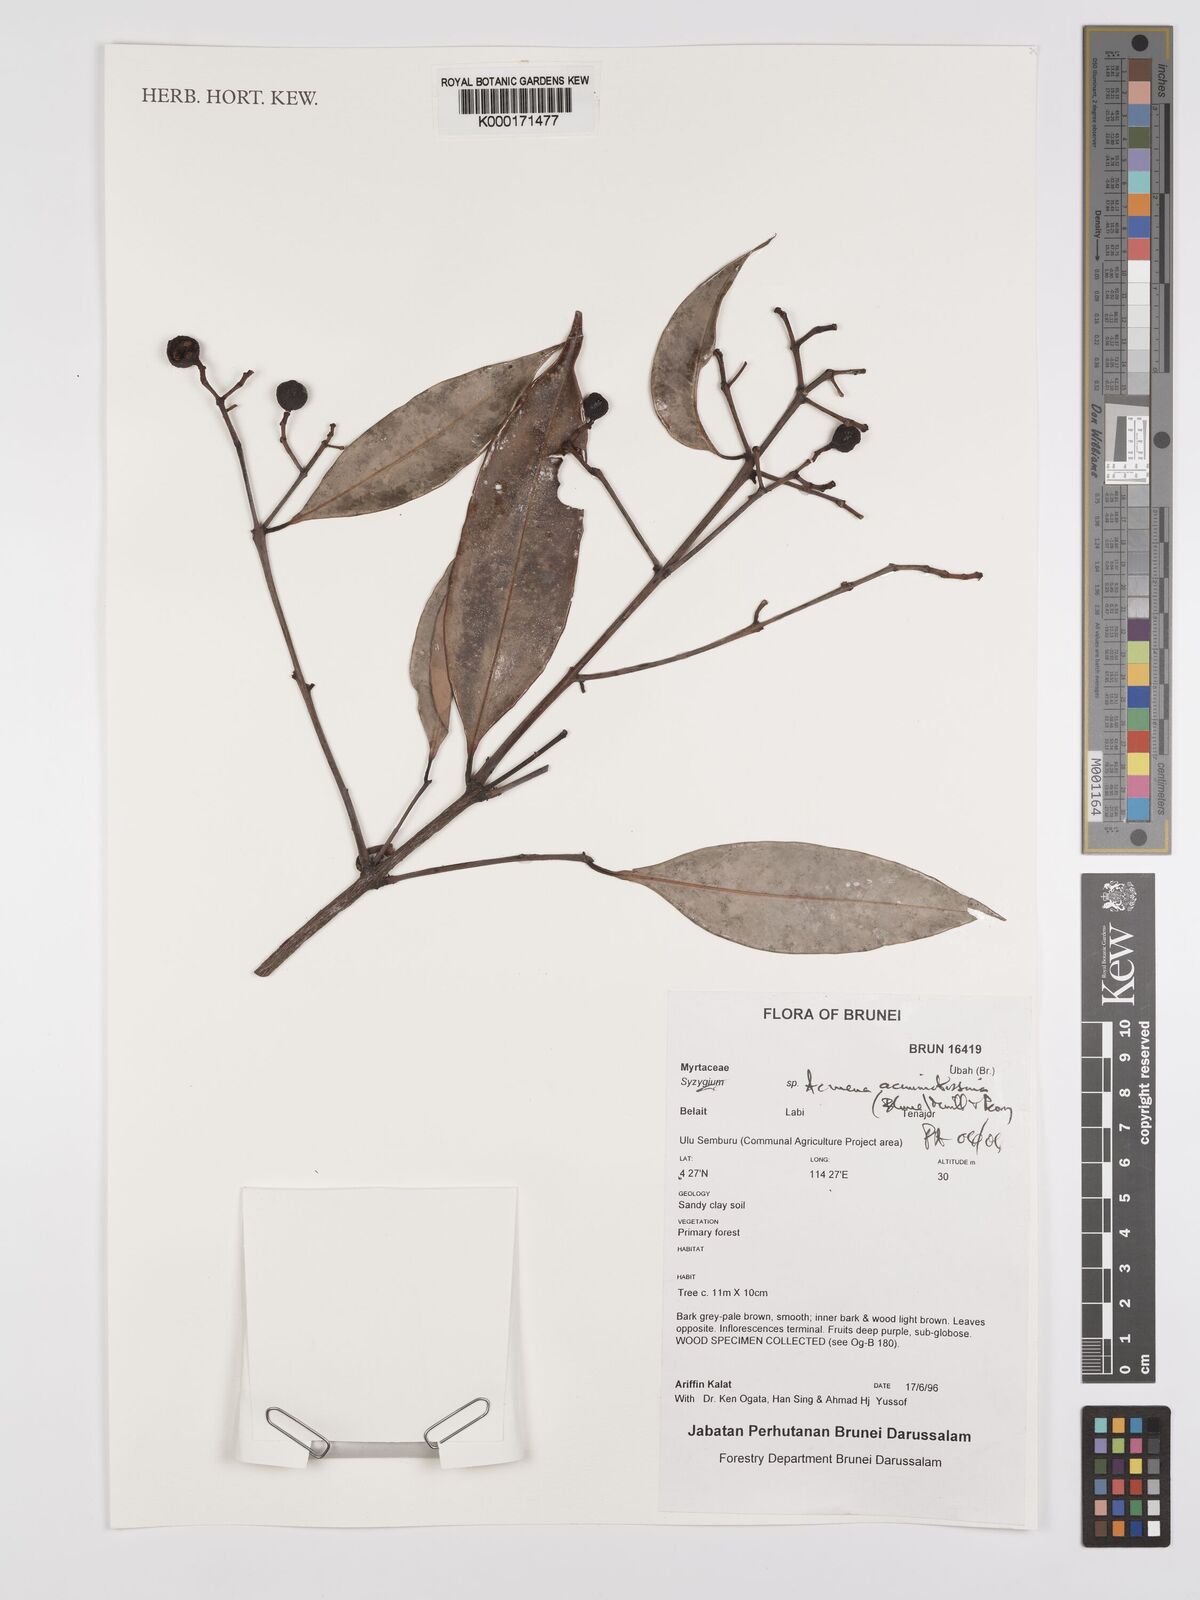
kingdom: Plantae
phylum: Tracheophyta
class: Magnoliopsida
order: Myrtales
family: Myrtaceae
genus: Syzygium
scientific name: Syzygium acuminatissimum
